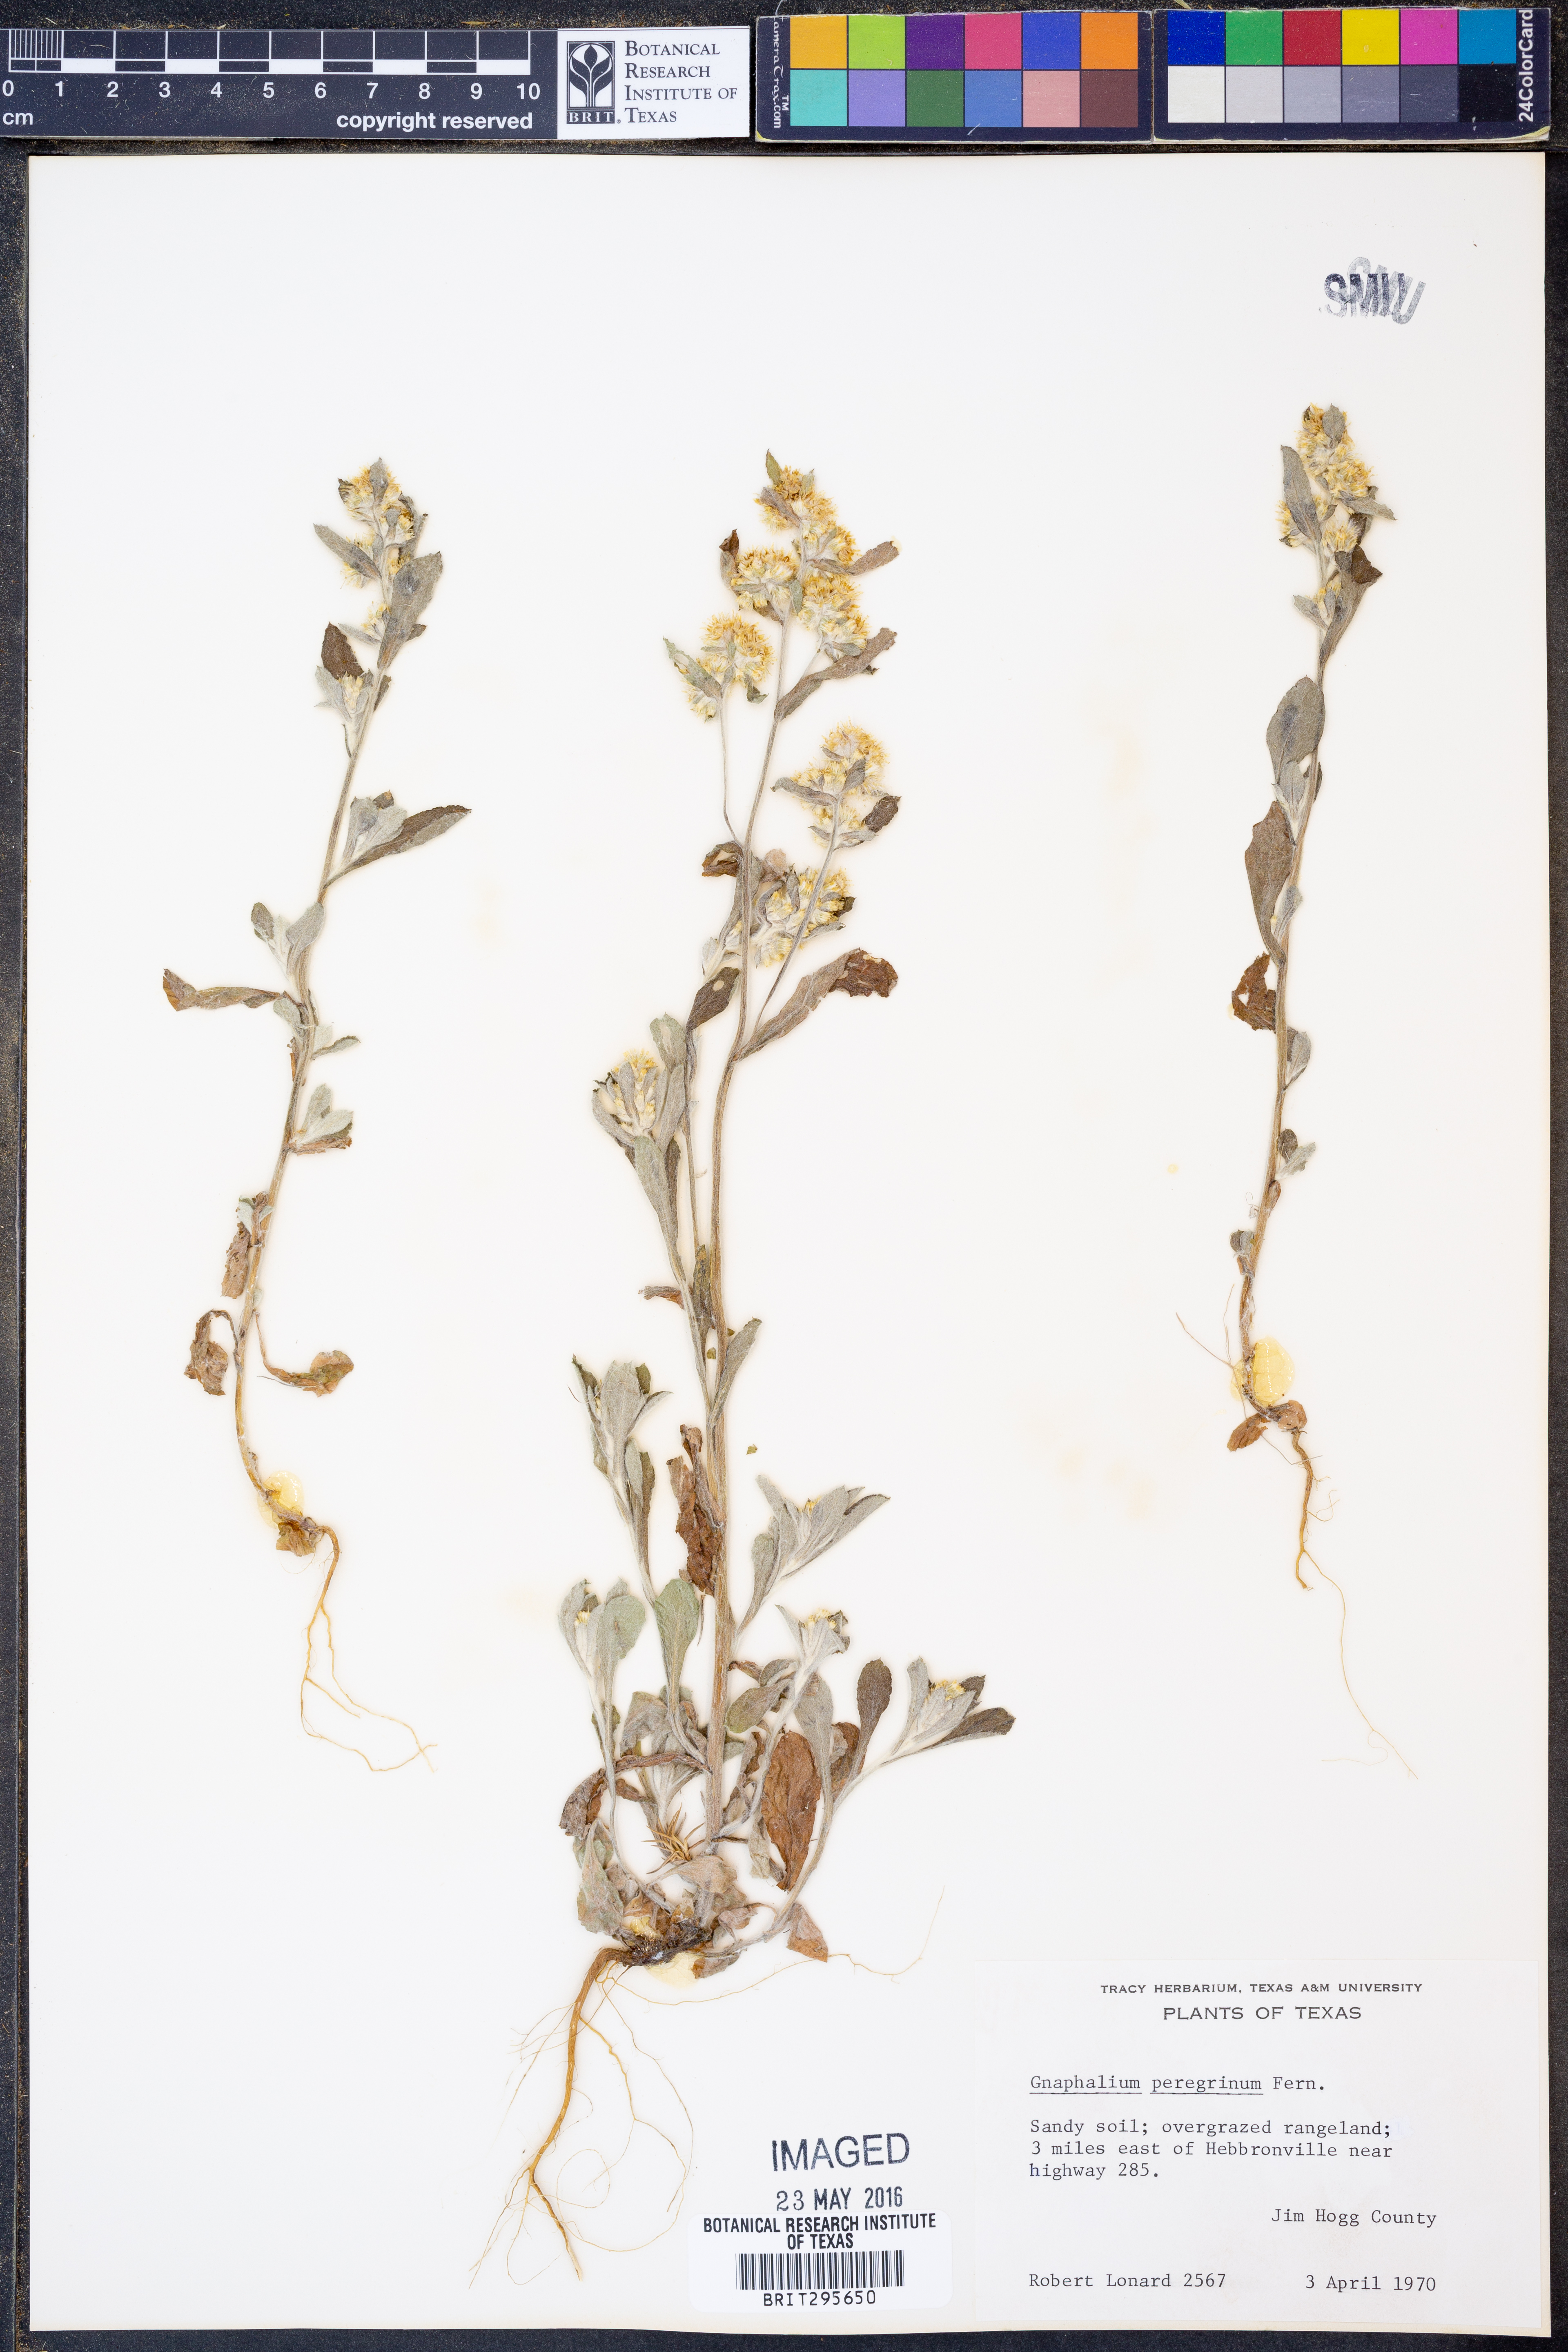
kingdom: Plantae
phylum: Tracheophyta
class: Magnoliopsida
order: Asterales
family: Asteraceae
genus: Gamochaeta
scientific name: Gamochaeta pensylvanica
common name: Pennsylvania everlasting
